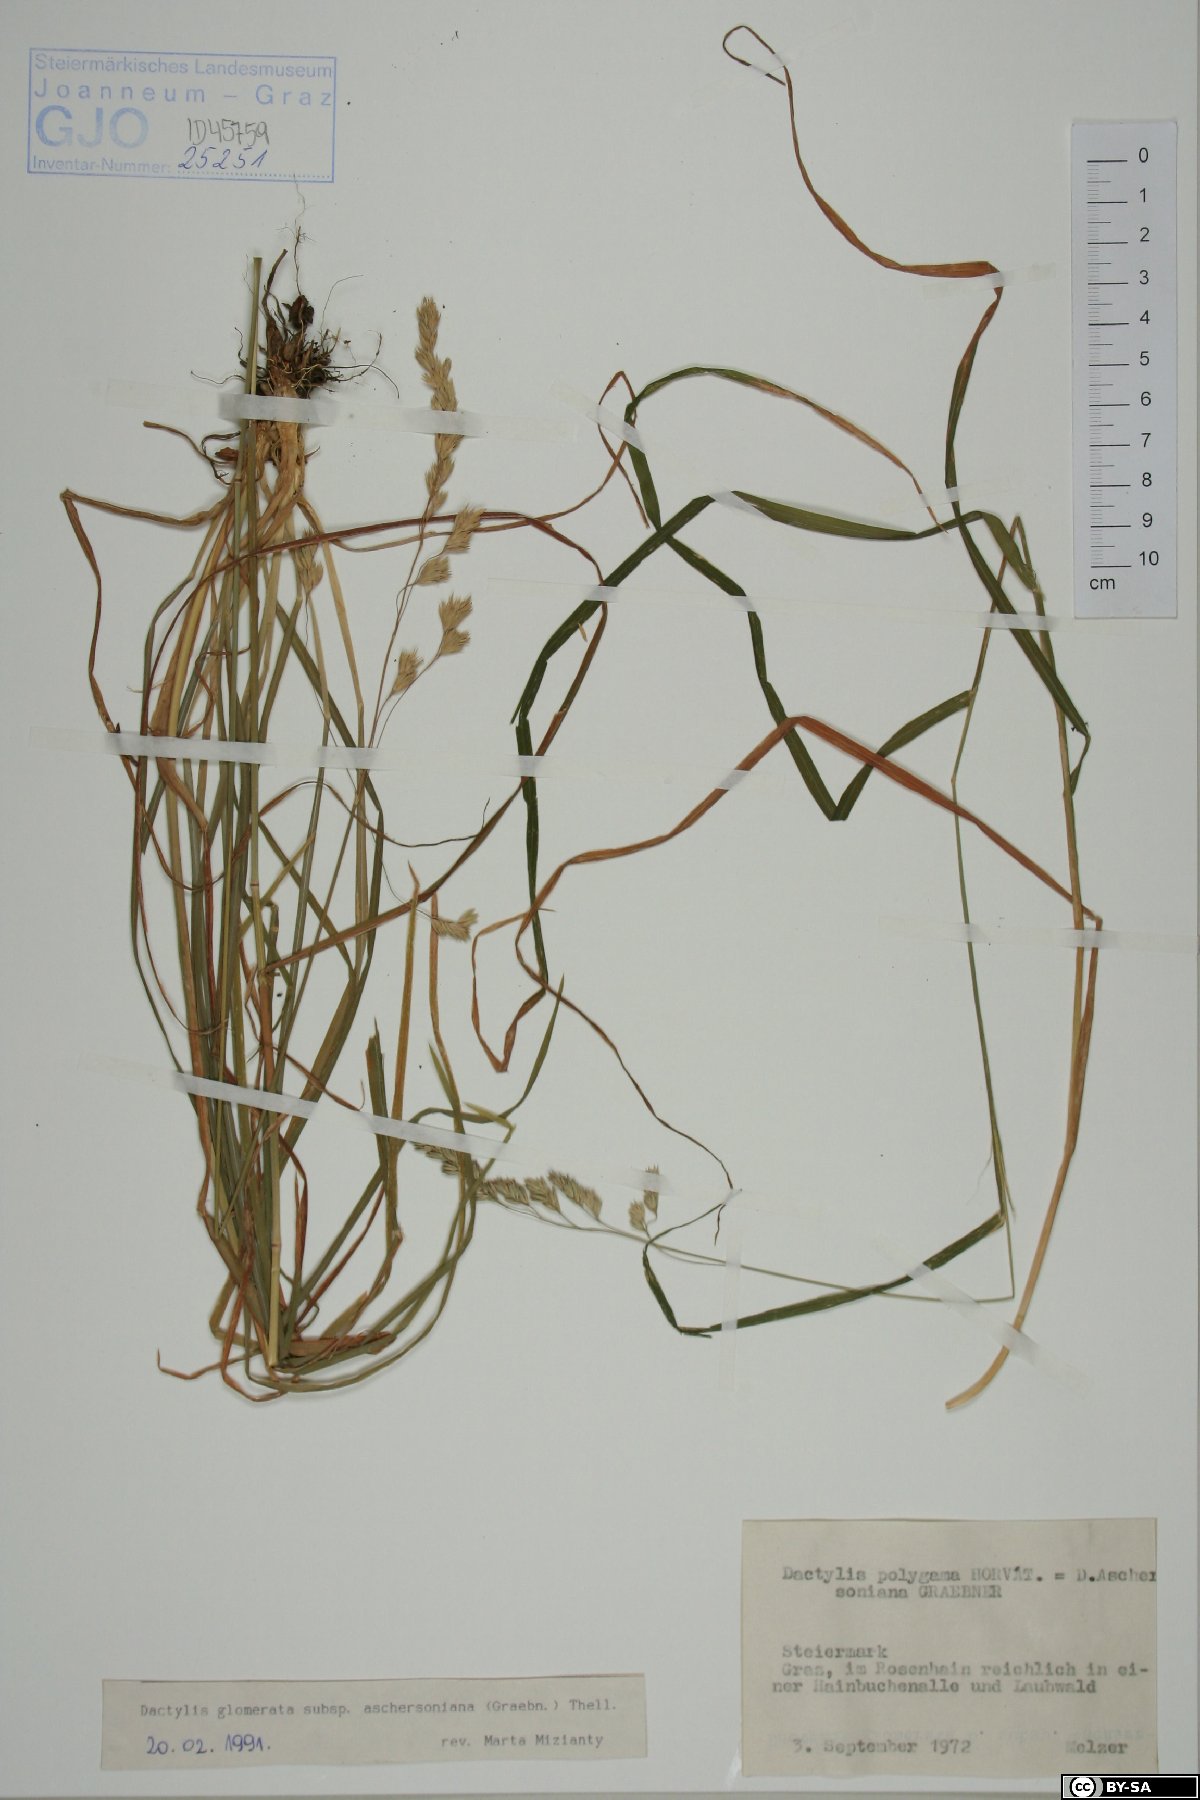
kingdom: Plantae
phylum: Tracheophyta
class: Liliopsida
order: Poales
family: Poaceae
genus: Dactylis
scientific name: Dactylis glomerata
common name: Orchardgrass
